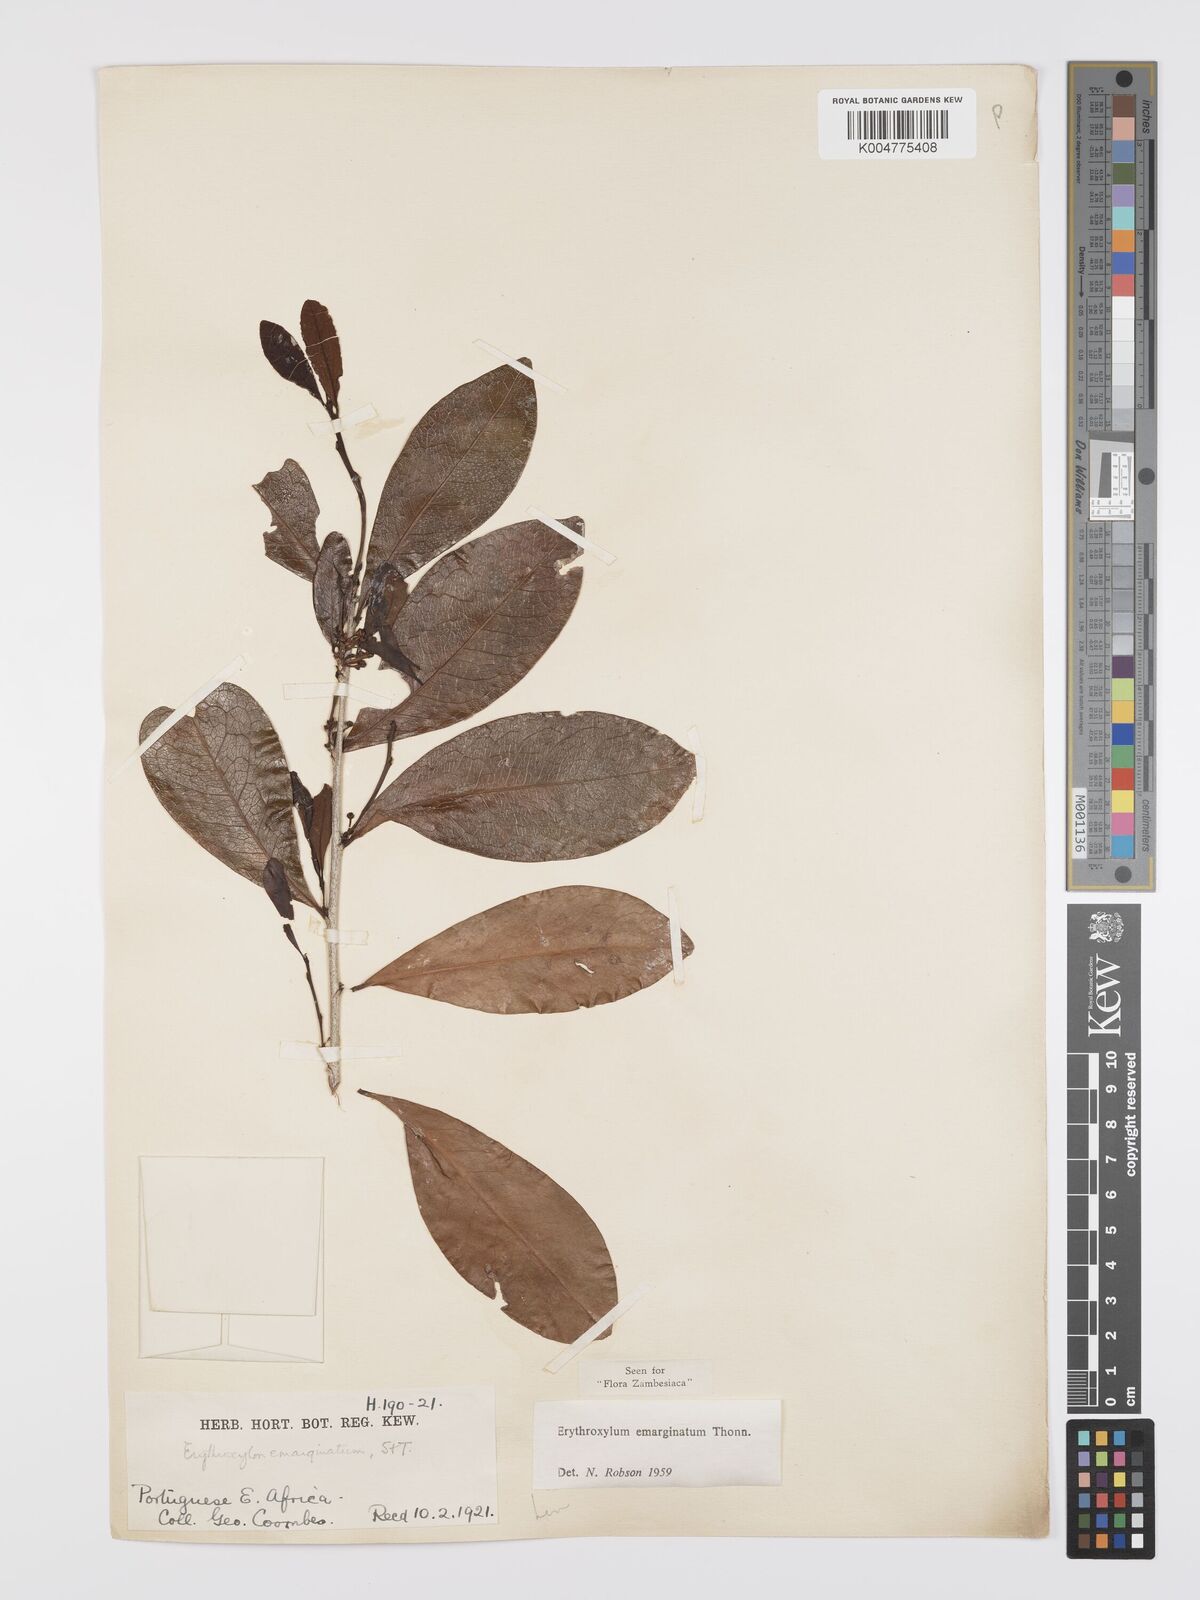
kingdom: Plantae
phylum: Tracheophyta
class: Magnoliopsida
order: Malpighiales
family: Erythroxylaceae
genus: Erythroxylum
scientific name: Erythroxylum emarginatum
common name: African coca-tree
